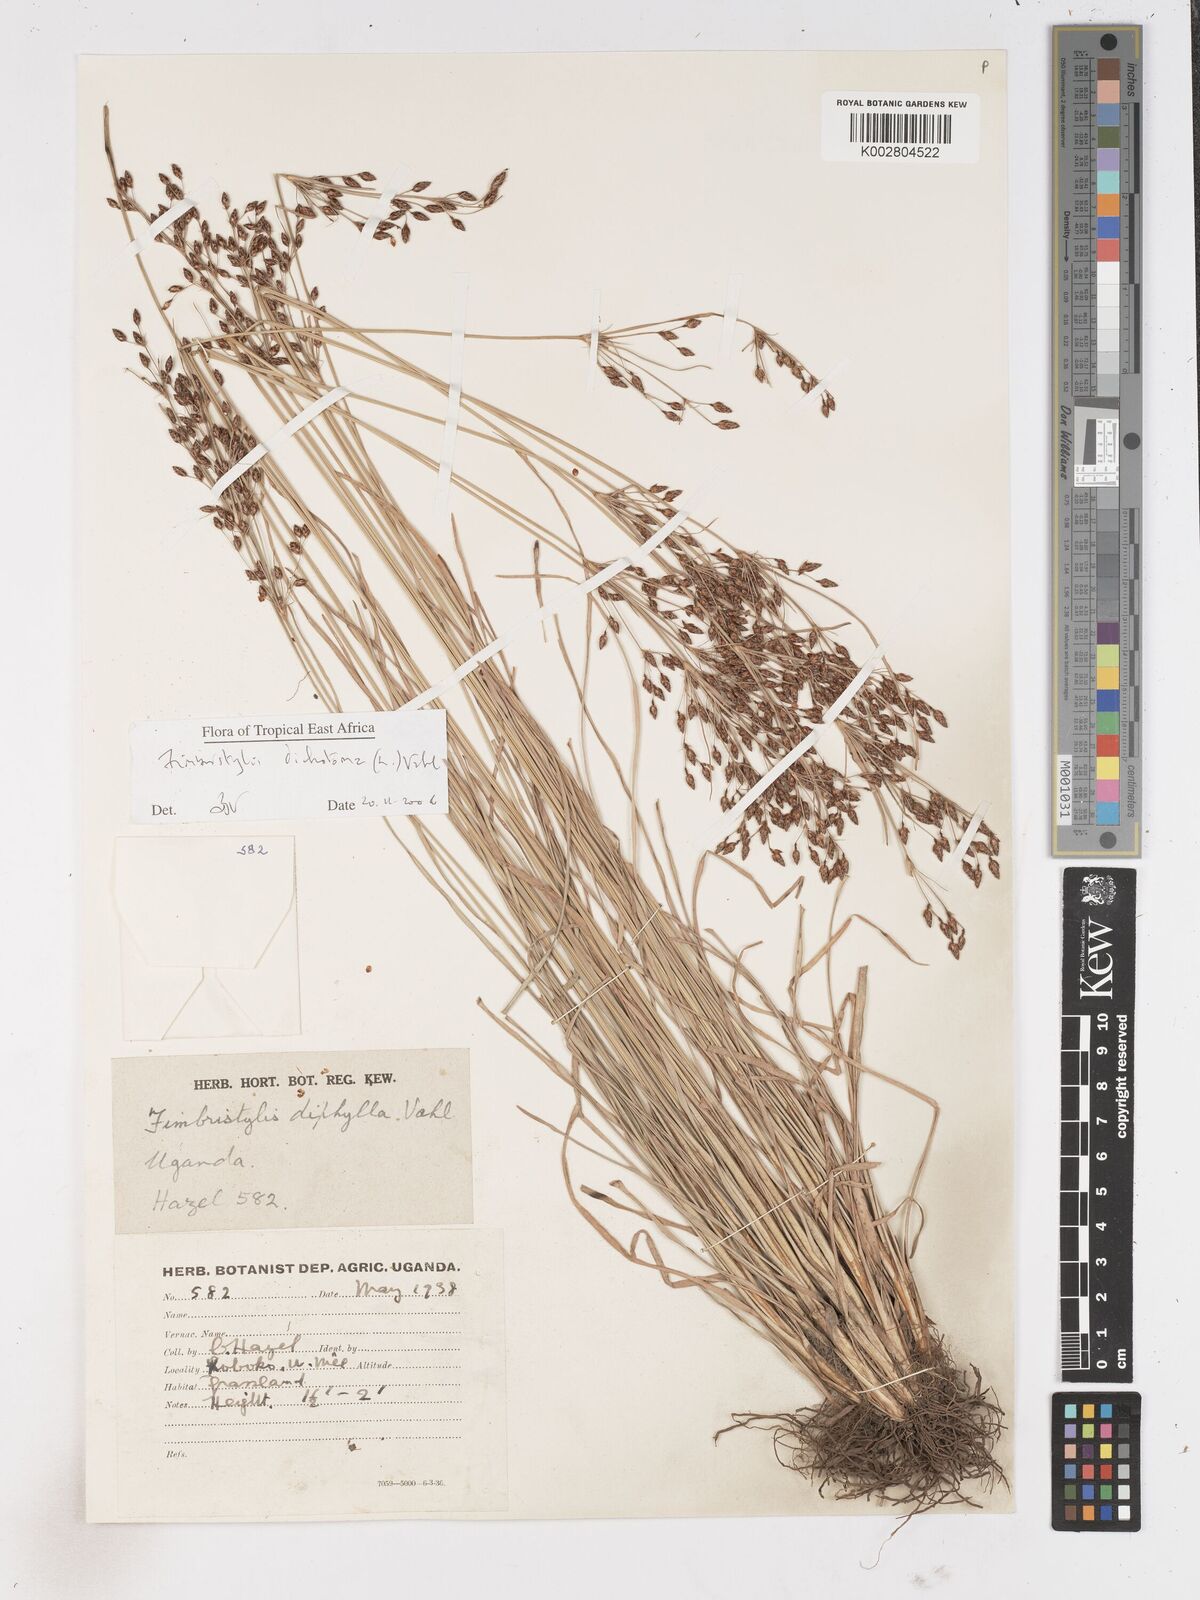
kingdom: Plantae
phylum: Tracheophyta
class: Liliopsida
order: Poales
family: Cyperaceae
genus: Fimbristylis
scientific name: Fimbristylis dichotoma
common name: Forked fimbry
